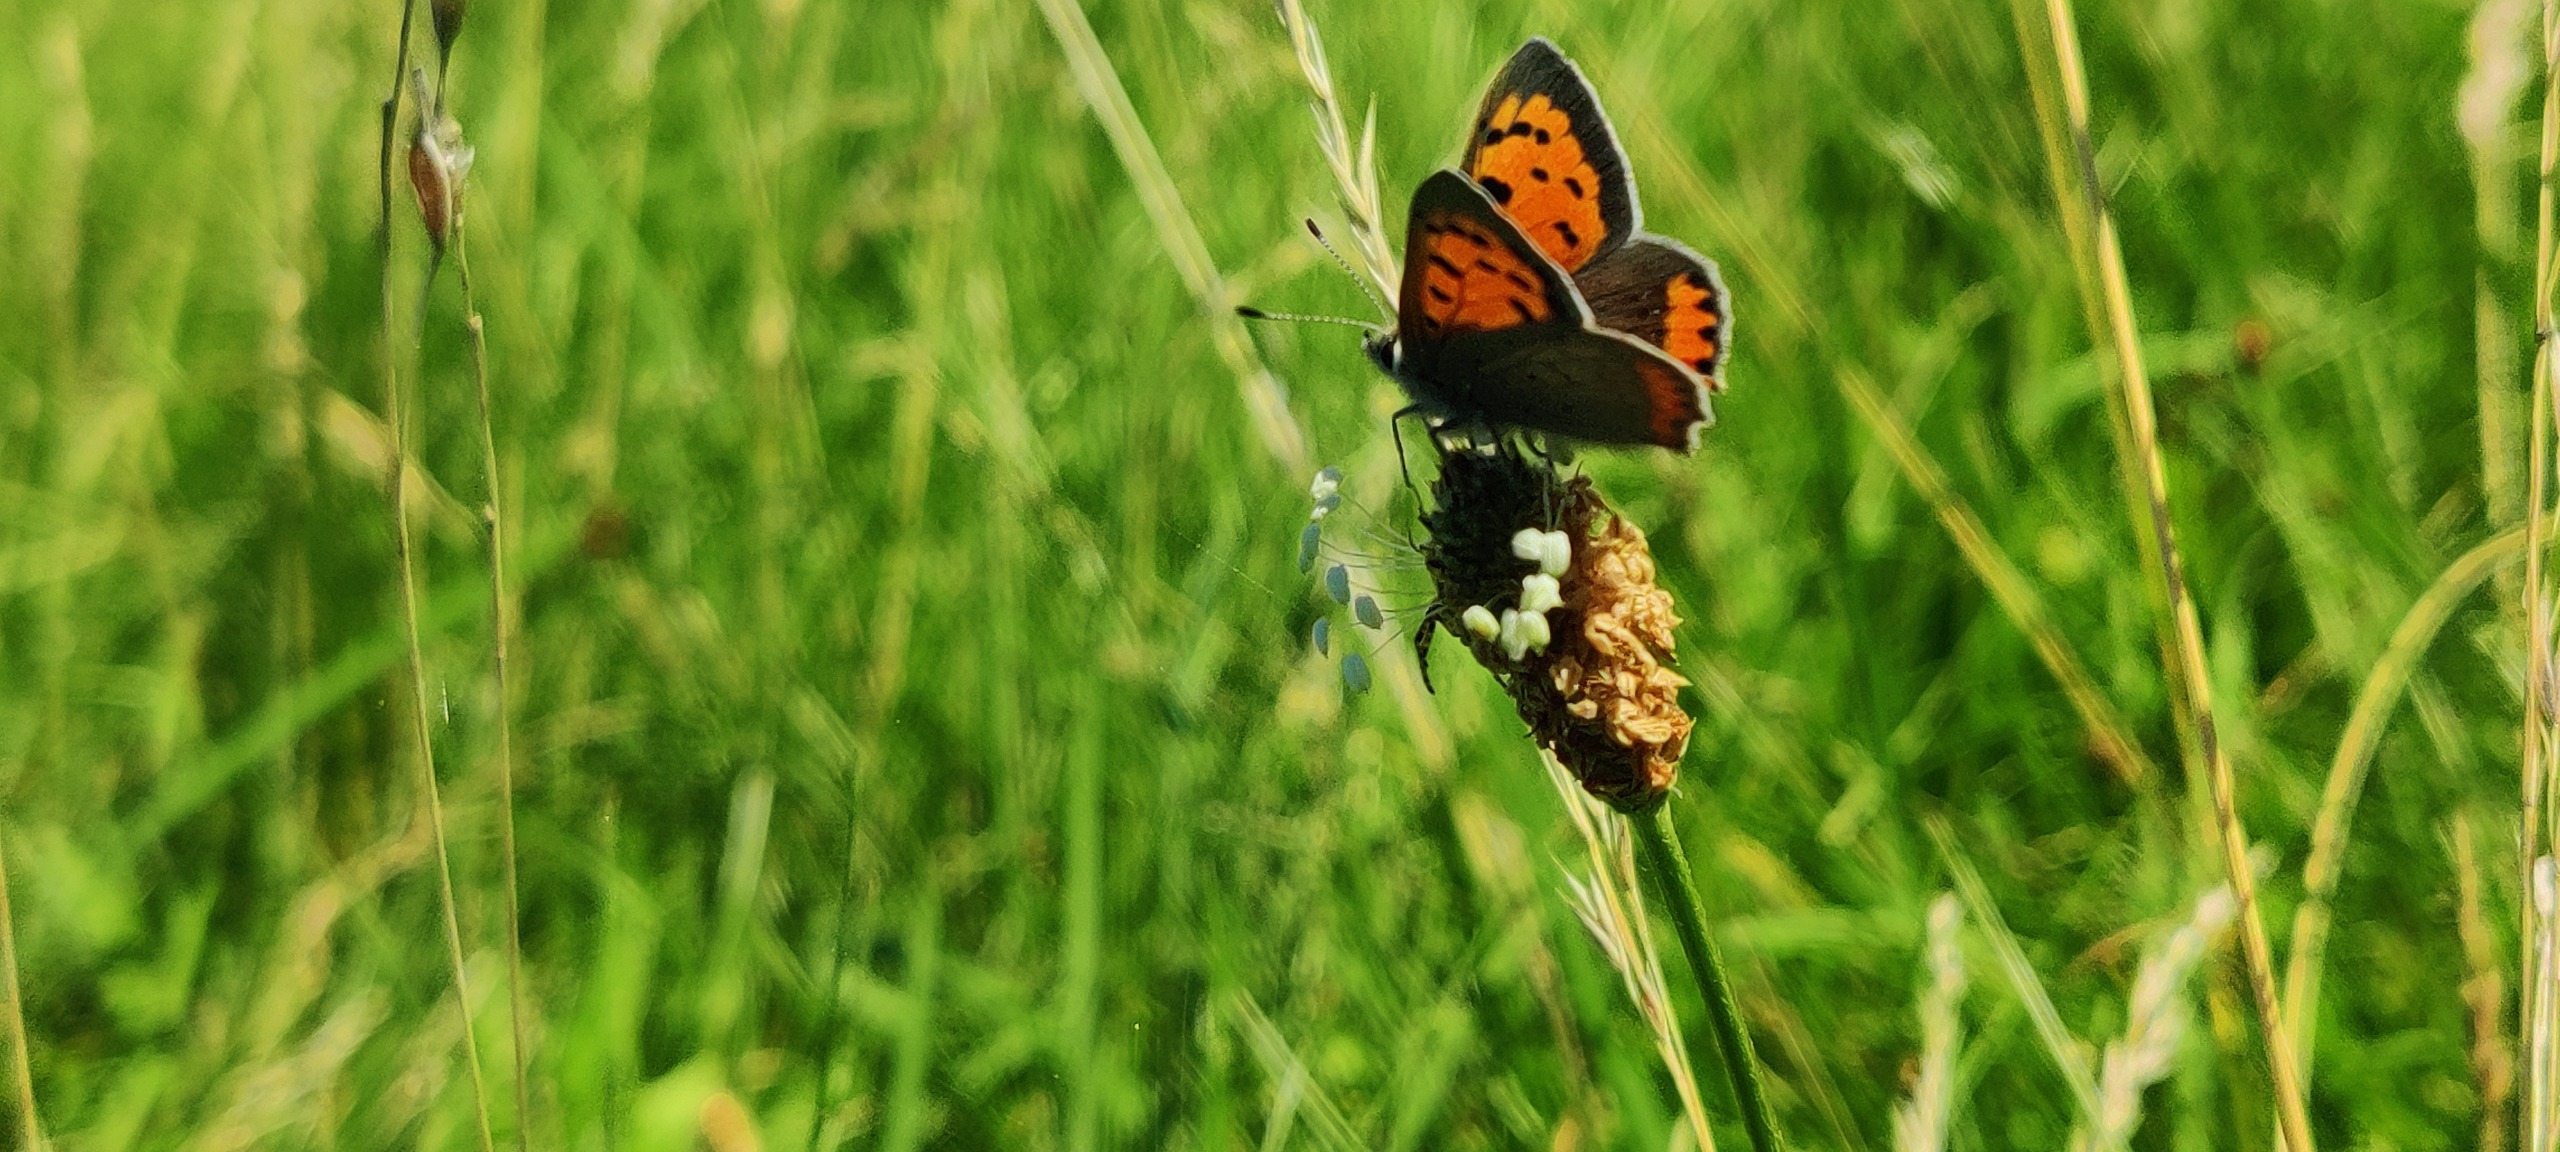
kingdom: Animalia
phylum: Arthropoda
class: Insecta
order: Lepidoptera
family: Lycaenidae
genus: Lycaena
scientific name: Lycaena phlaeas
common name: Lille ildfugl
